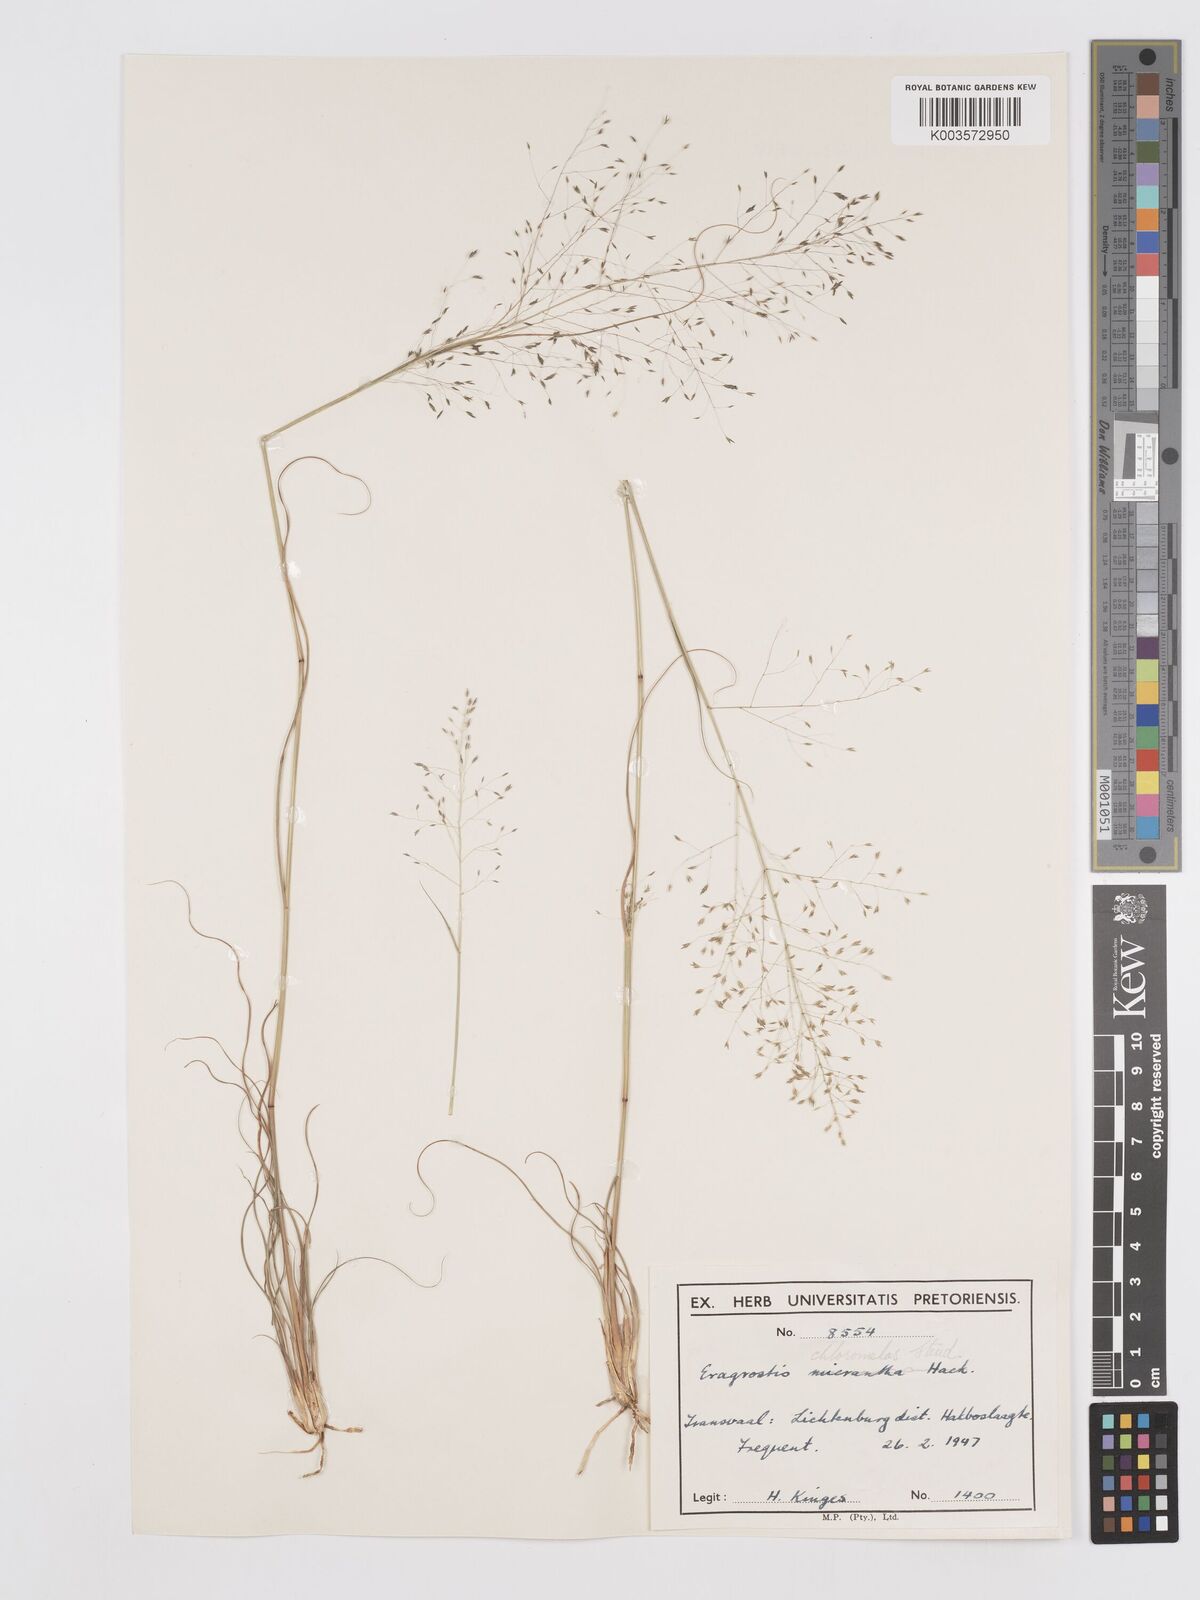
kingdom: Plantae
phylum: Tracheophyta
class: Liliopsida
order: Poales
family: Poaceae
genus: Eragrostis
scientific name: Eragrostis curvula
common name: African love-grass
